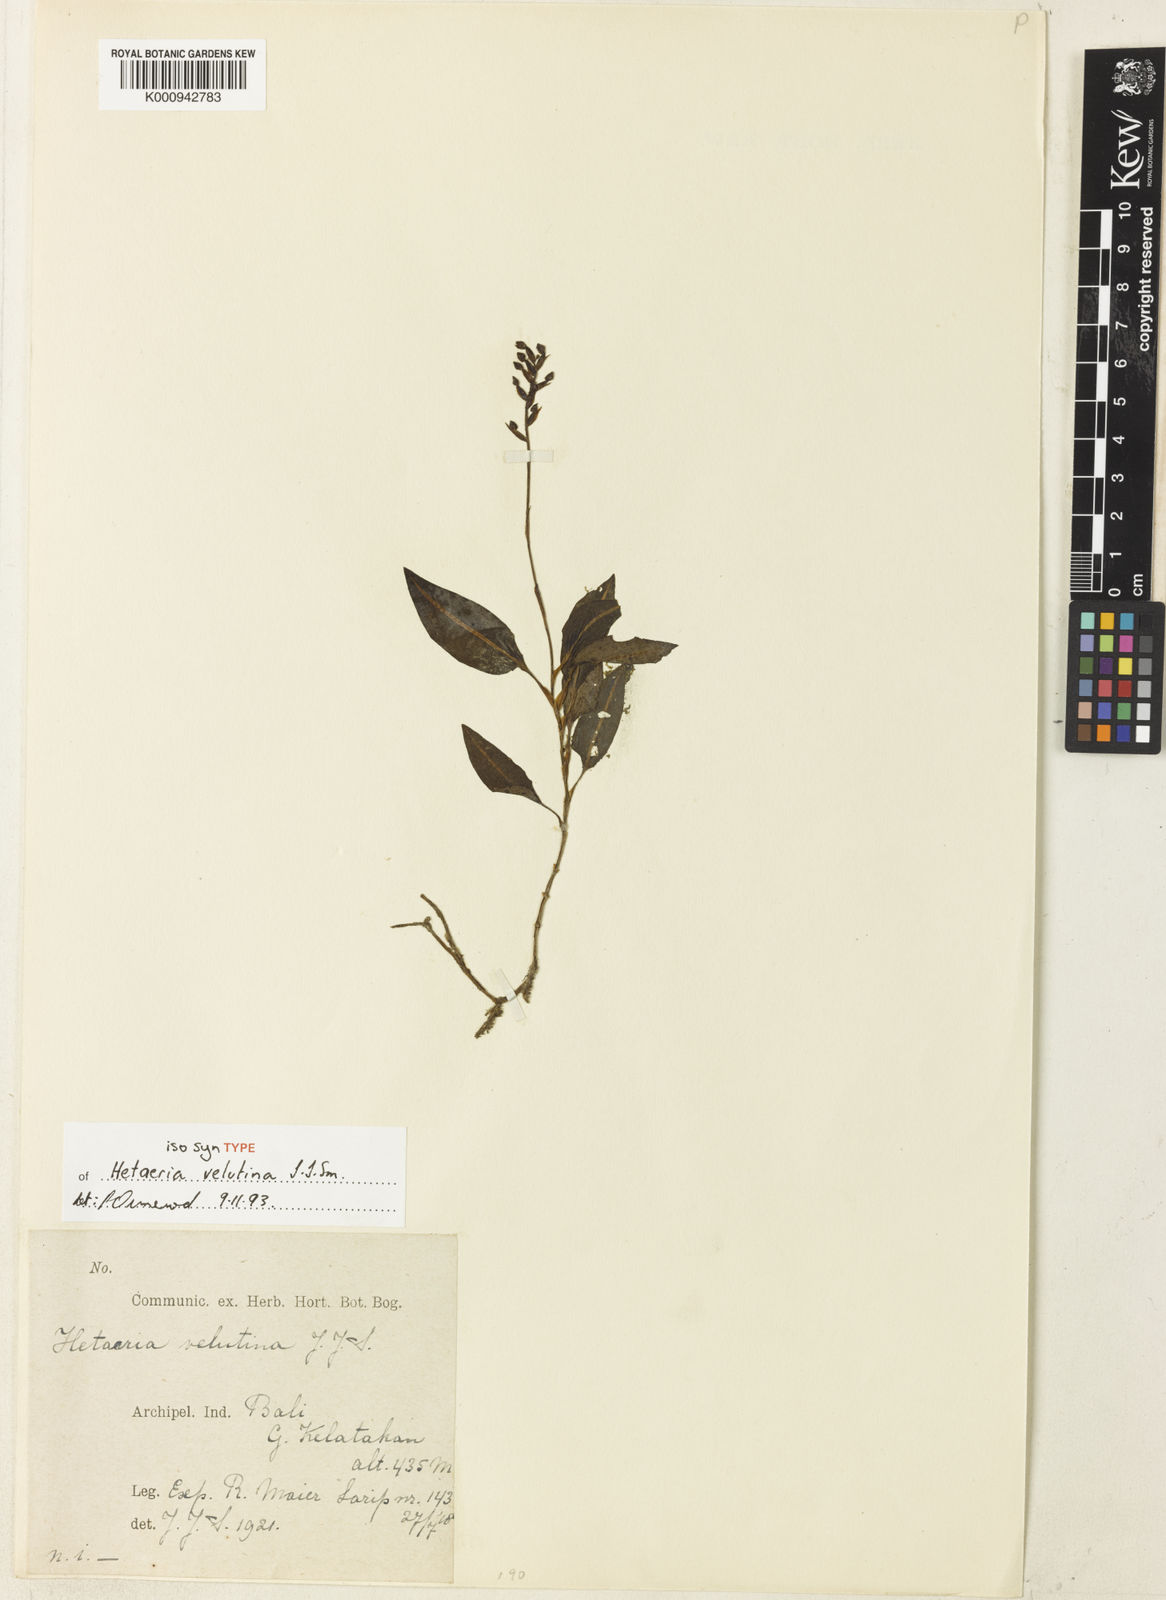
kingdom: Plantae
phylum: Tracheophyta
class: Liliopsida
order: Asparagales
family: Orchidaceae
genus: Rhomboda
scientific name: Rhomboda velutina
